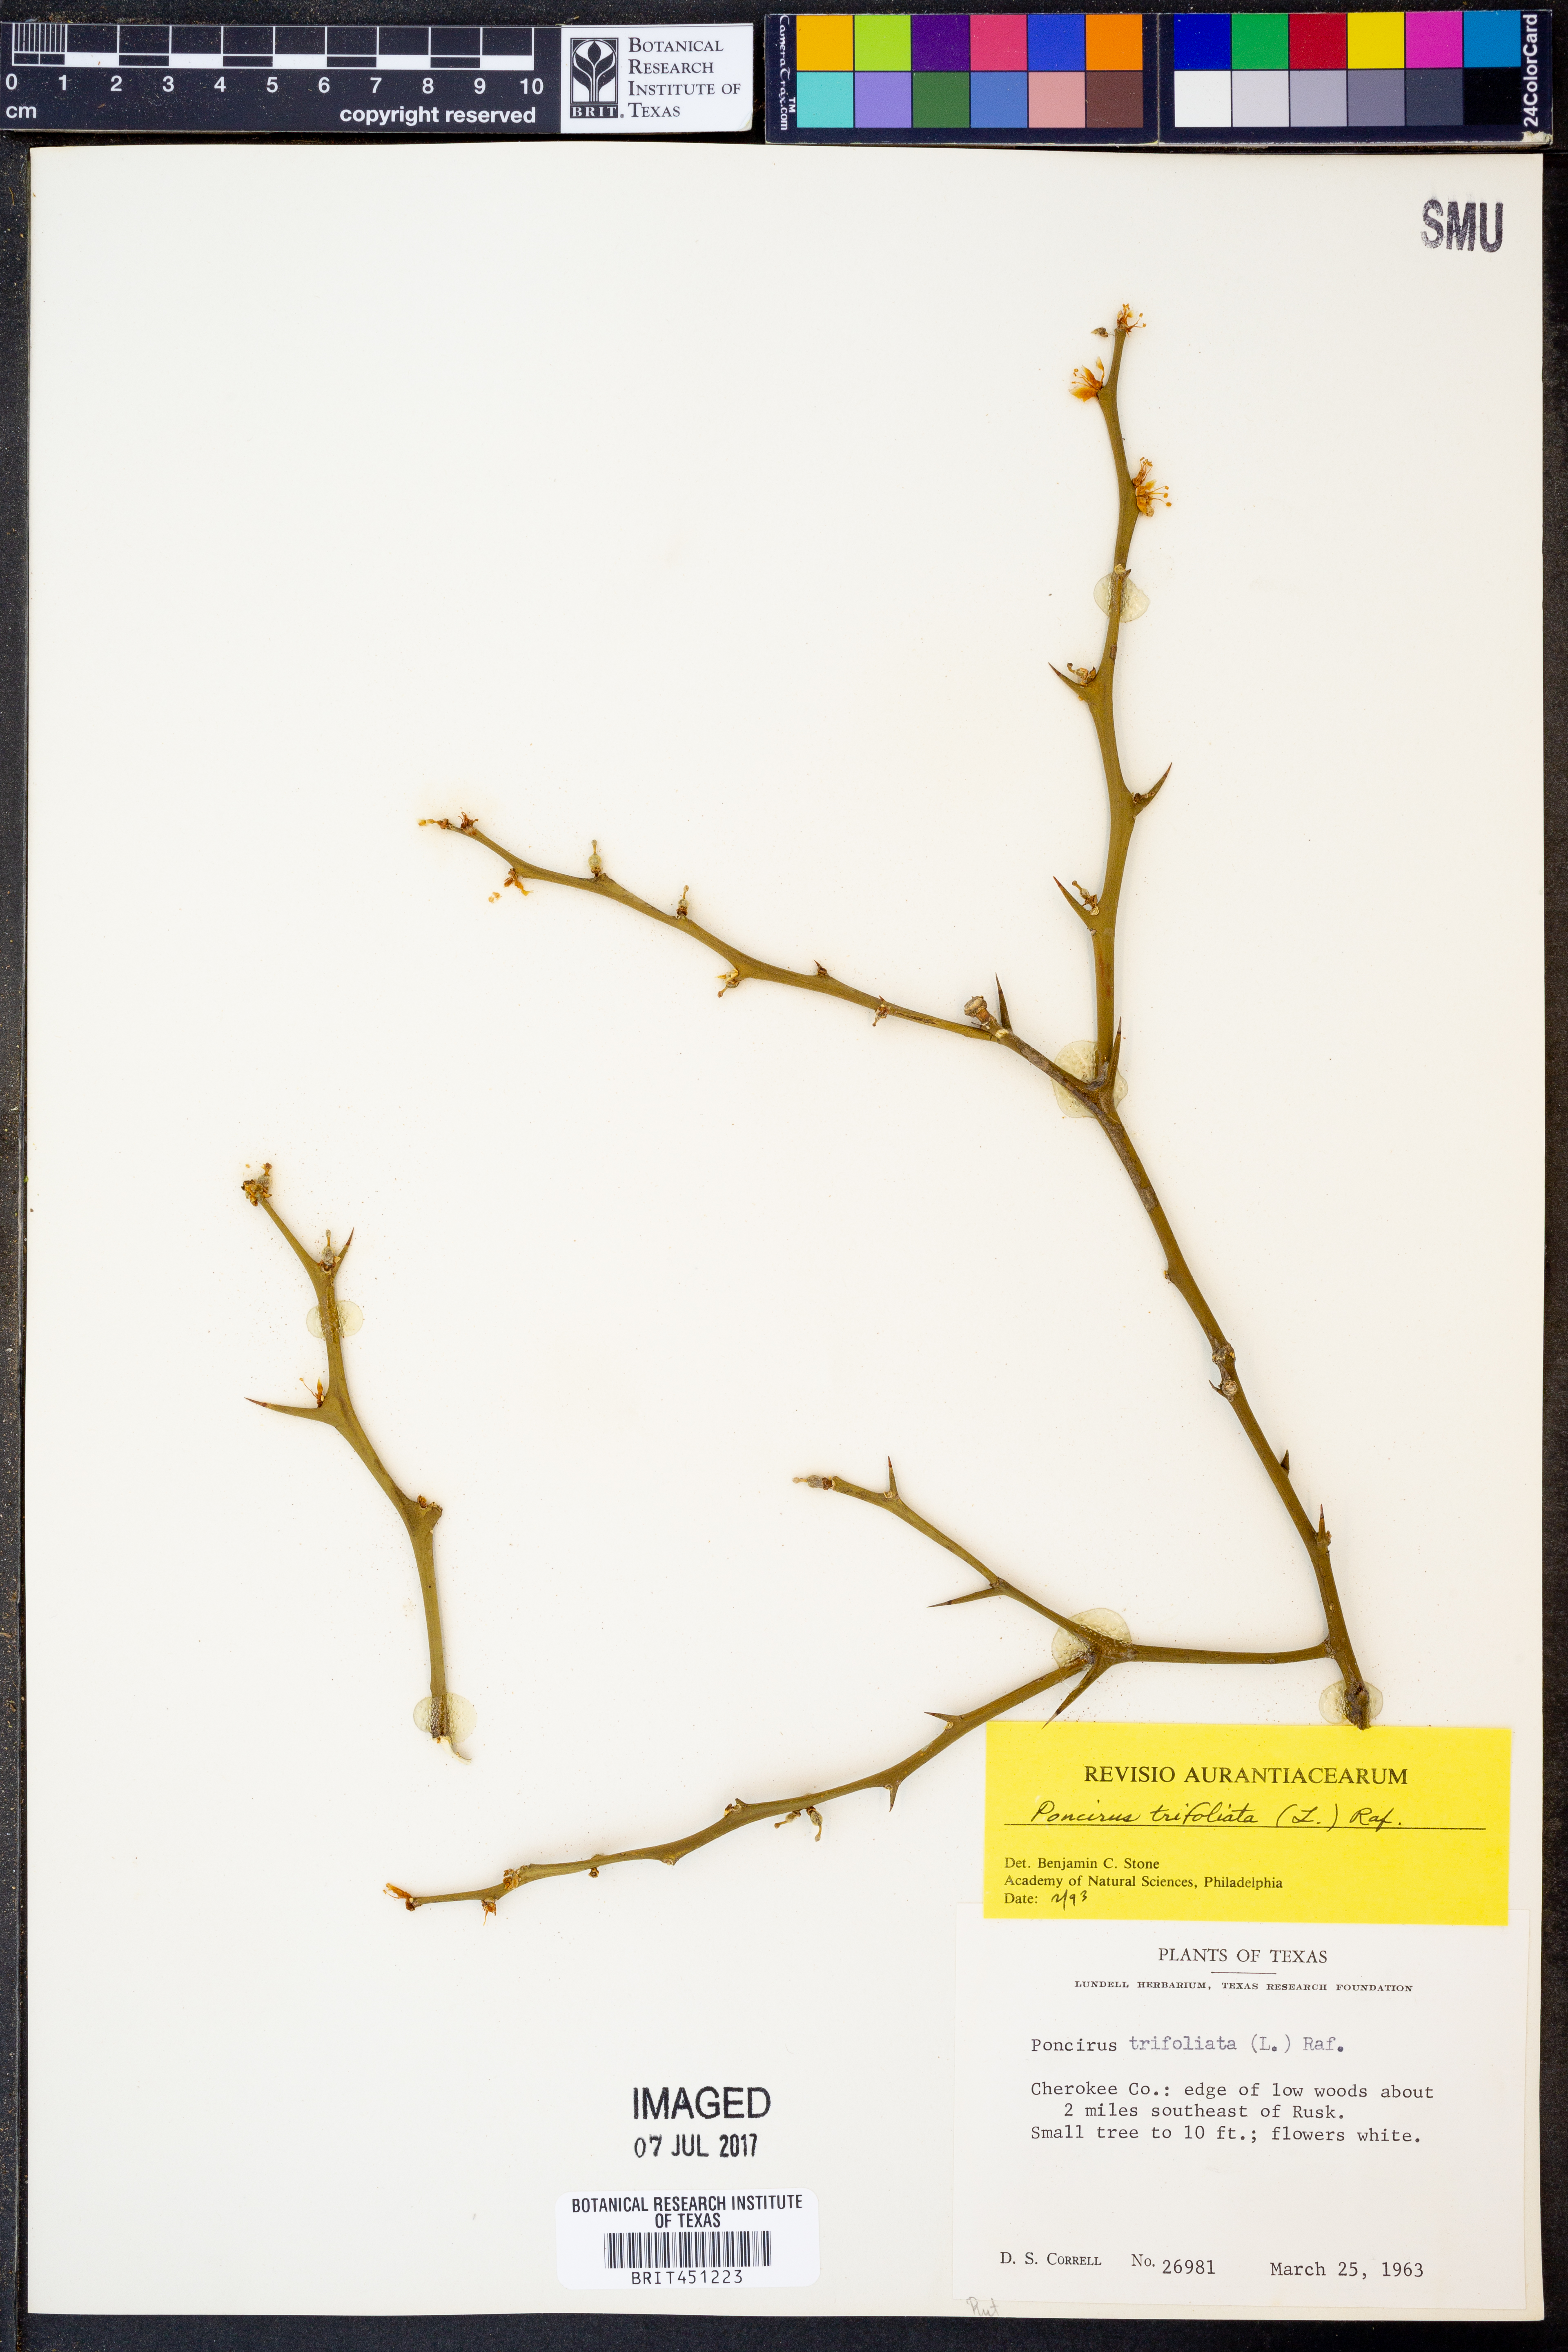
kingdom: Plantae
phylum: Tracheophyta
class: Magnoliopsida
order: Sapindales
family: Rutaceae
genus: Citrus
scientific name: Citrus trifoliata
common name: Japanese bitter-orange
